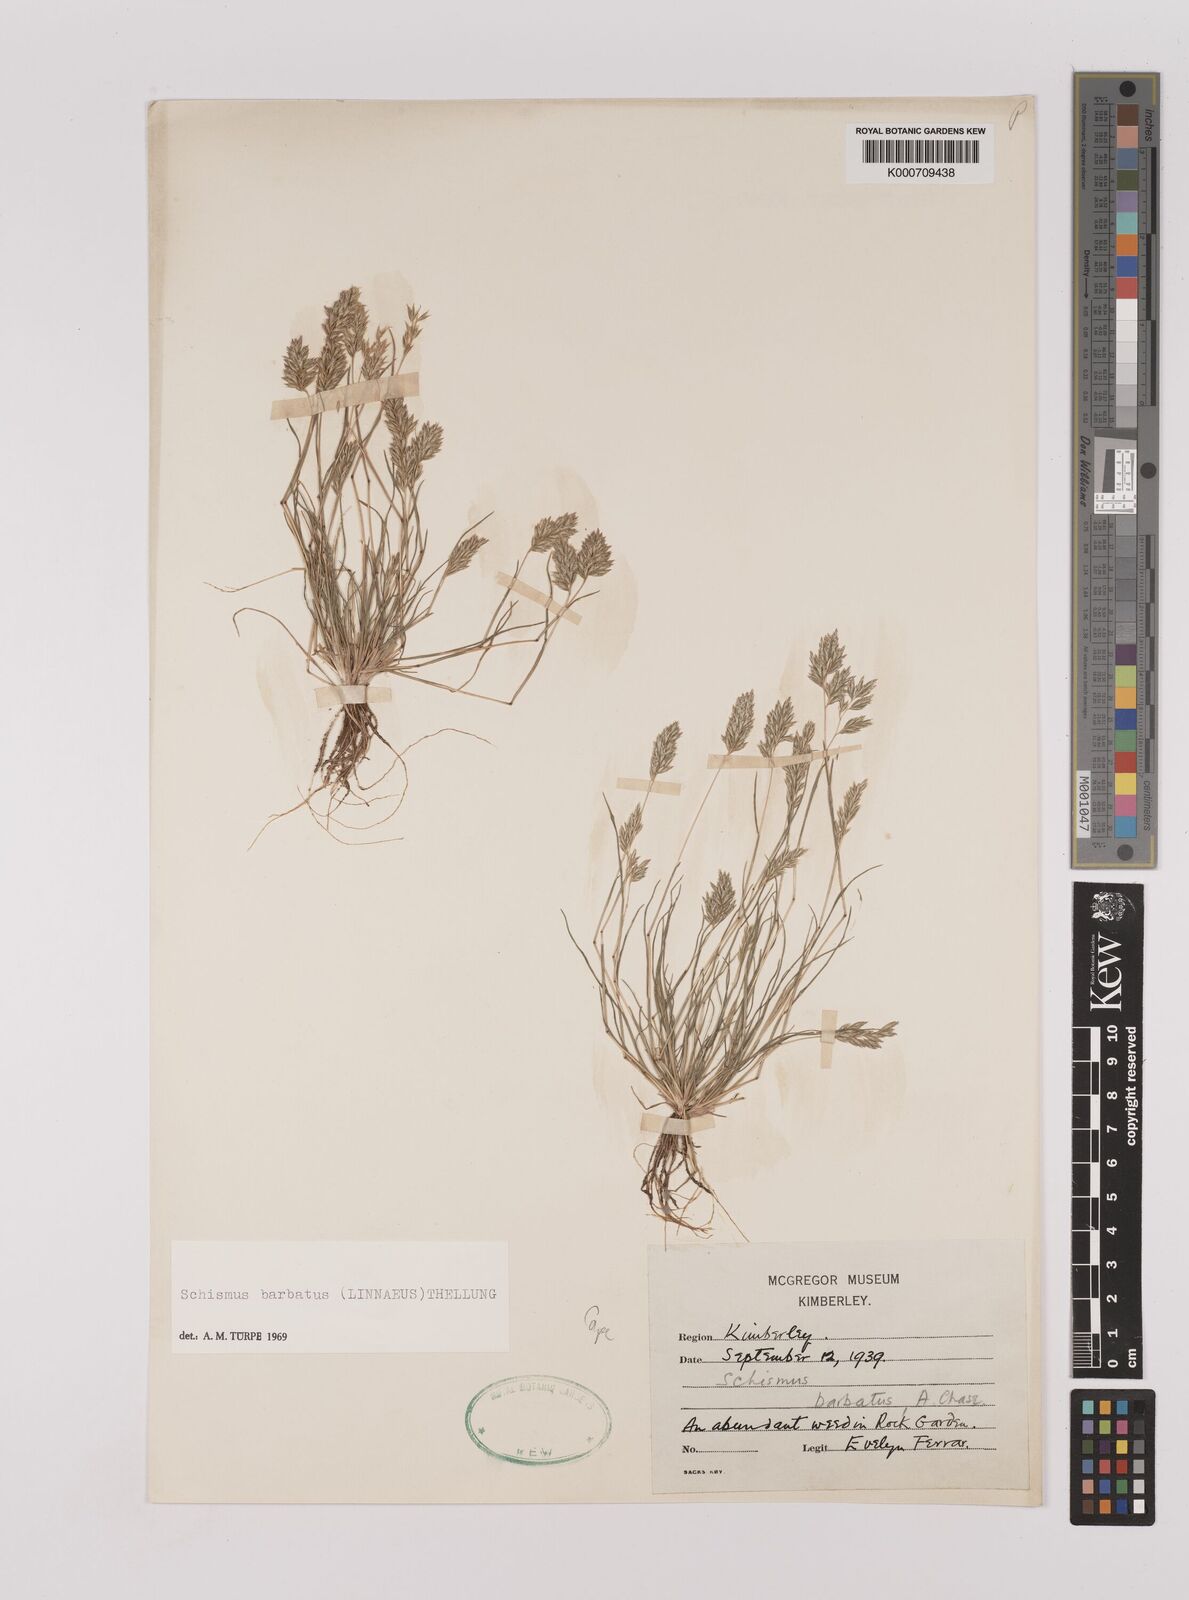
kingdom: Plantae
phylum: Tracheophyta
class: Liliopsida
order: Poales
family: Poaceae
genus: Schismus
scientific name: Schismus barbatus
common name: Kelch-grass
